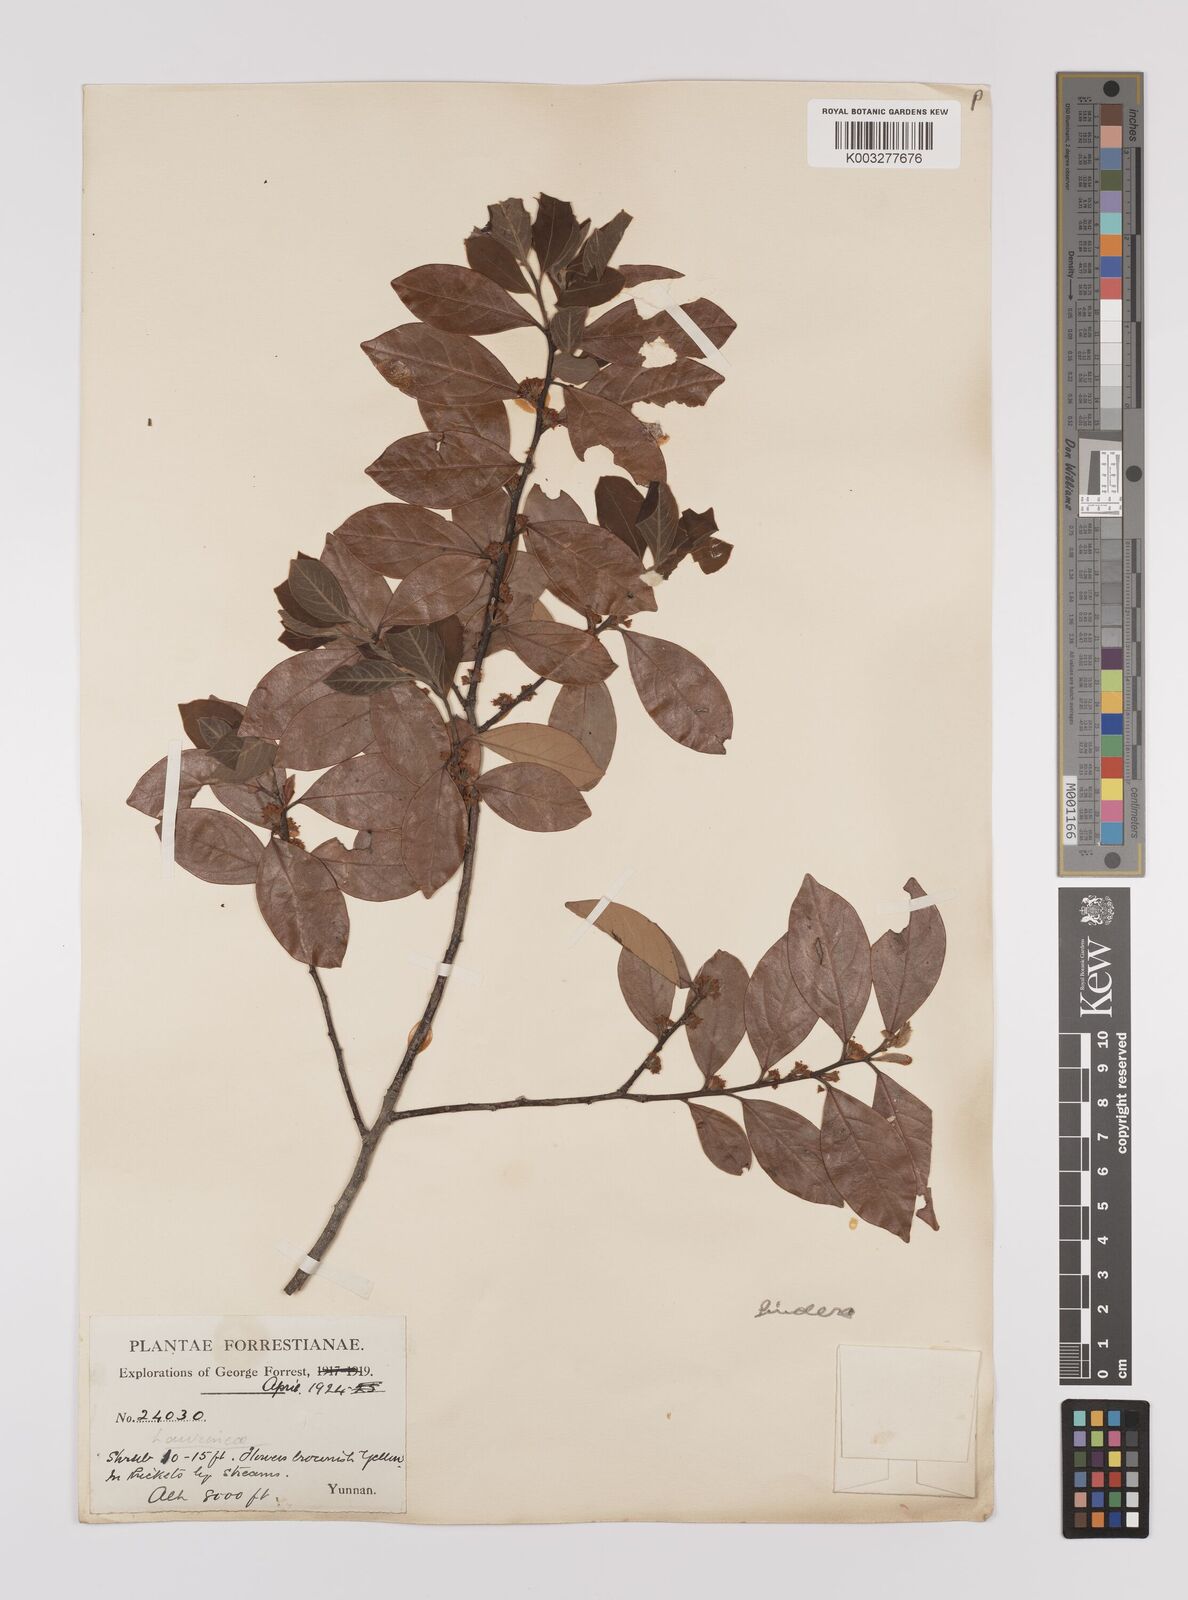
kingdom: Plantae
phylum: Tracheophyta
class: Magnoliopsida
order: Laurales
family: Lauraceae
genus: Litsea
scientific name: Litsea rotundifolia
